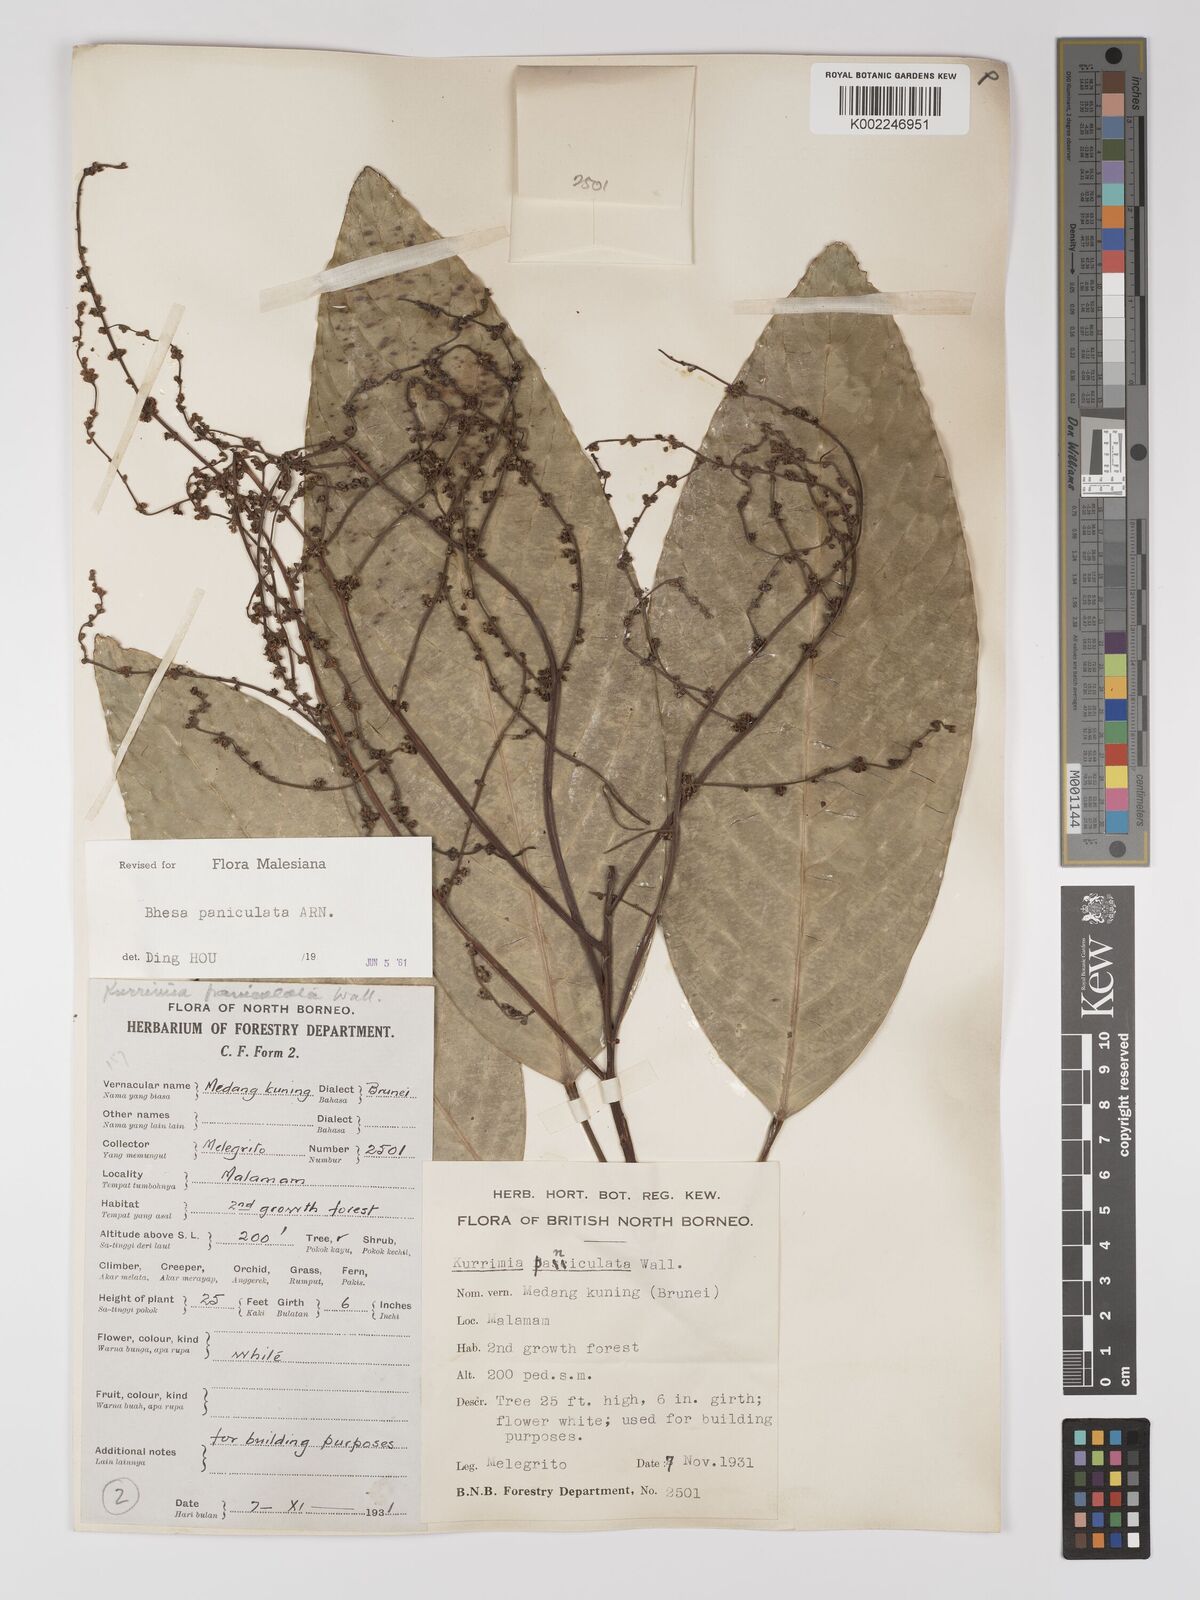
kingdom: Plantae
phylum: Tracheophyta
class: Magnoliopsida
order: Malpighiales
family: Centroplacaceae
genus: Bhesa
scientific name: Bhesa paniculata
